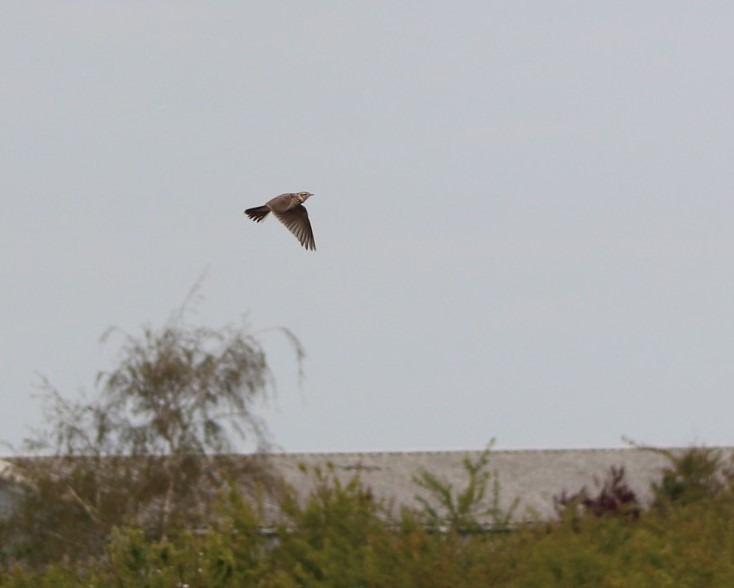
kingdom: Animalia
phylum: Chordata
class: Aves
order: Passeriformes
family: Alaudidae
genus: Alauda
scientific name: Alauda arvensis
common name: Sanglærke
